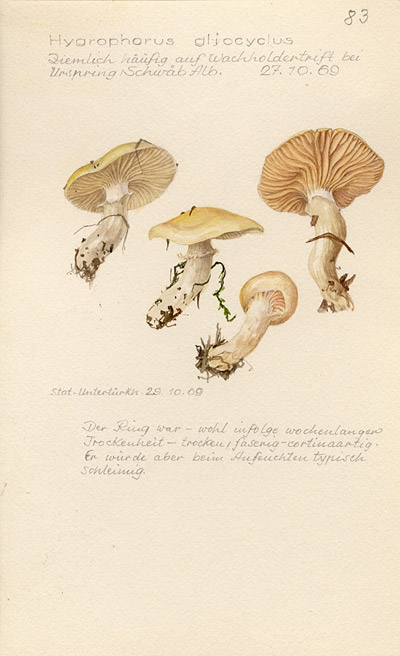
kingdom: Fungi
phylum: Basidiomycota
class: Agaricomycetes
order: Agaricales
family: Hygrophoraceae
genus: Hygrophorus
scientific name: Hygrophorus ligatus
